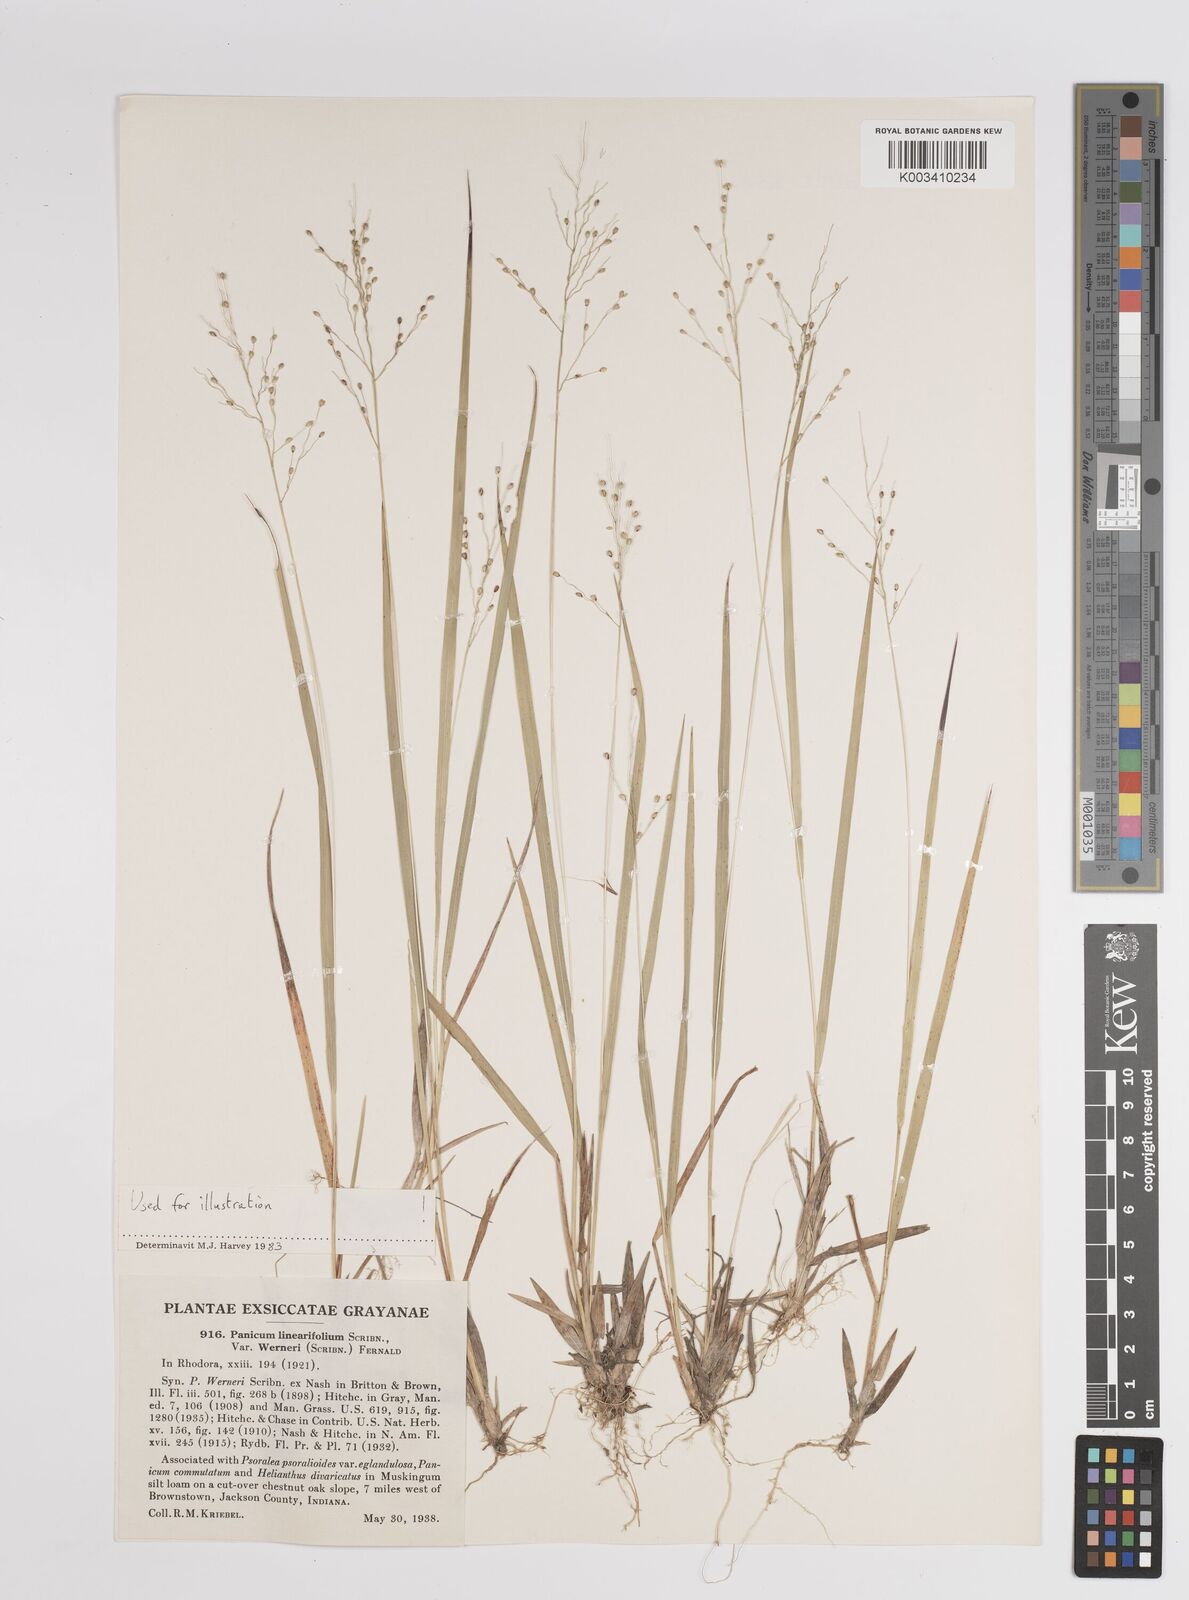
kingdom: Plantae
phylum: Tracheophyta
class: Liliopsida
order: Poales
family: Poaceae
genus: Dichanthelium
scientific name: Dichanthelium linearifolium
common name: Linear-leaved panicgrass
